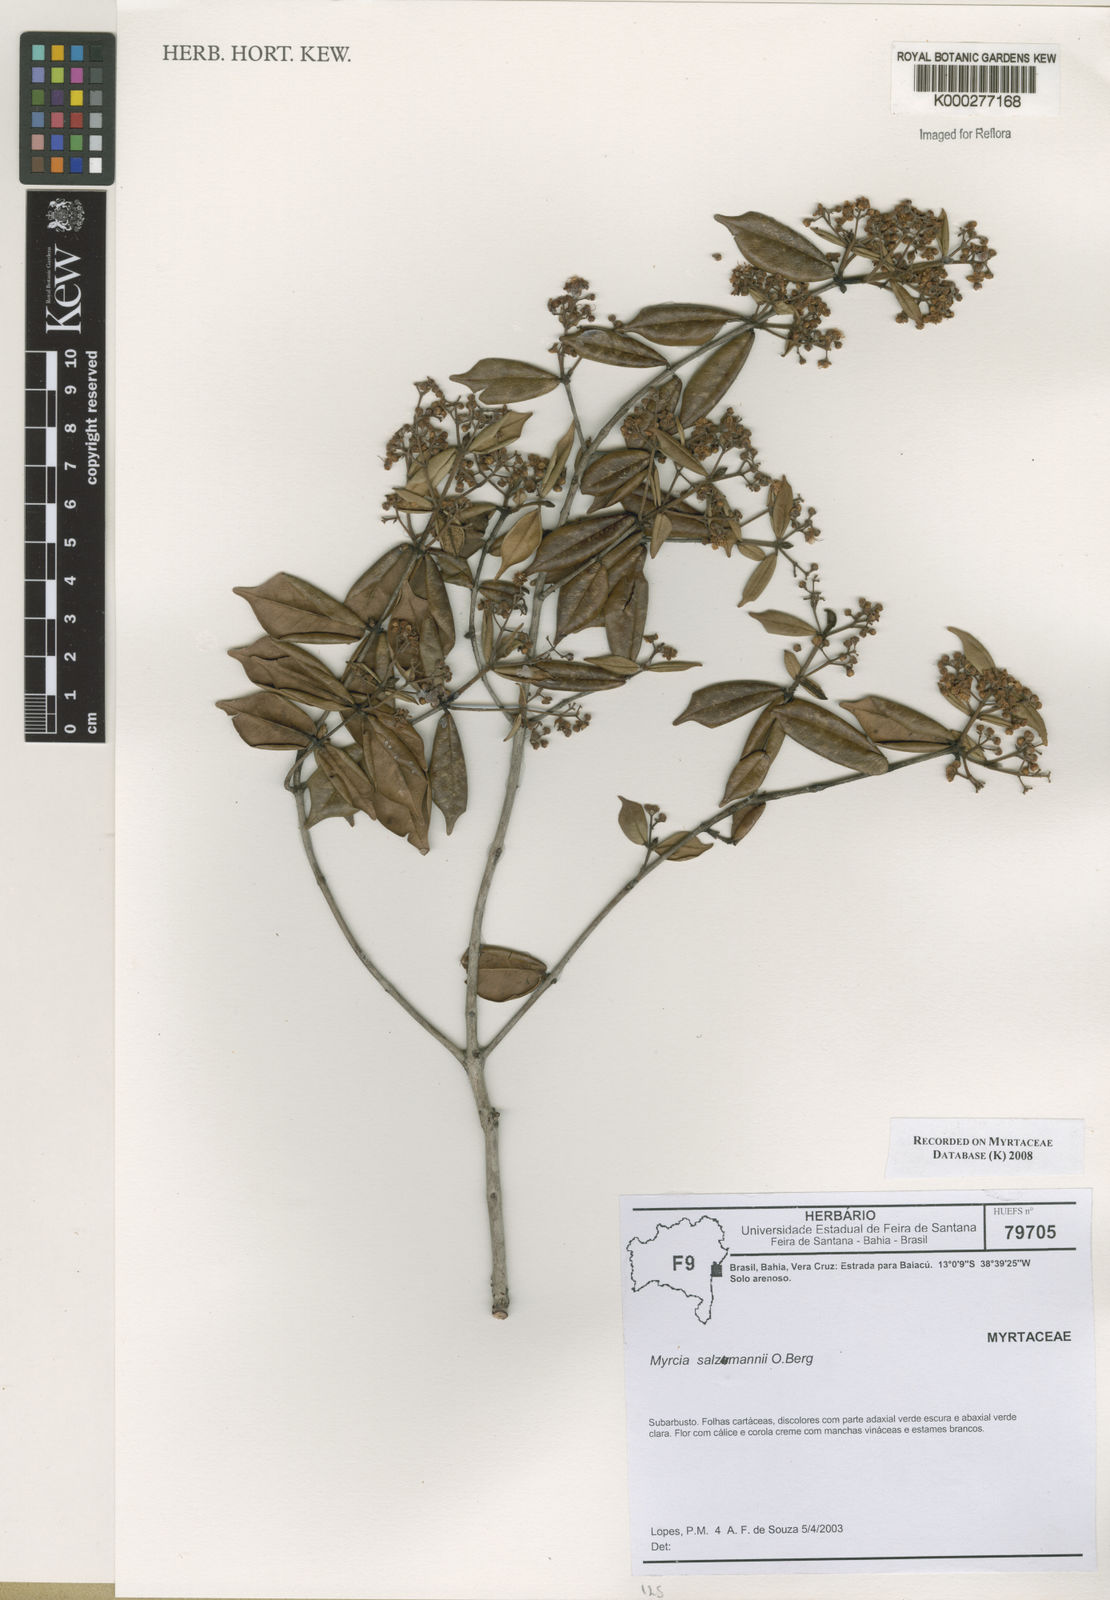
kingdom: Plantae
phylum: Tracheophyta
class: Magnoliopsida
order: Myrtales
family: Myrtaceae
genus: Myrcia
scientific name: Myrcia salzmannii
